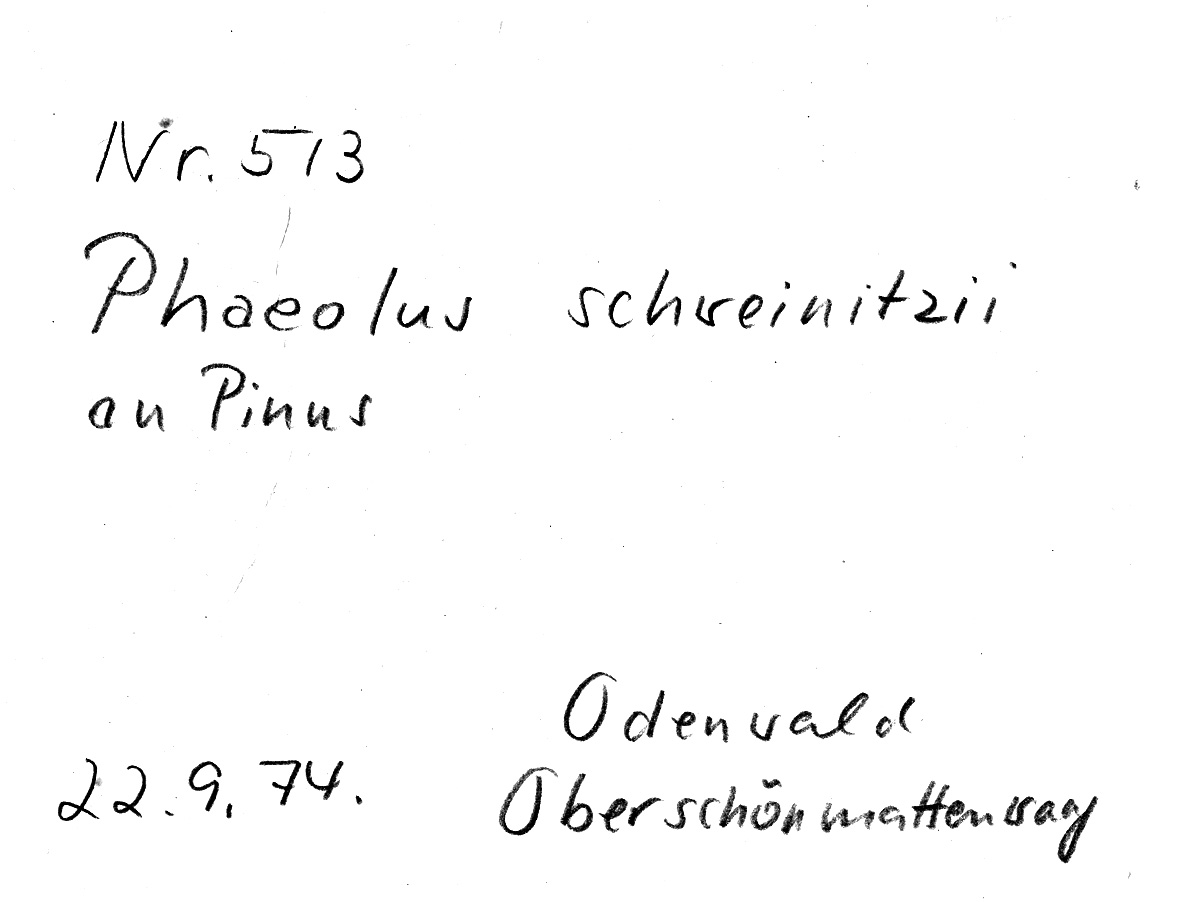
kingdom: Fungi
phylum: Basidiomycota
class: Agaricomycetes
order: Polyporales
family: Laetiporaceae
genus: Phaeolus
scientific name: Phaeolus schweinitzii
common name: Dyer's mazegill
